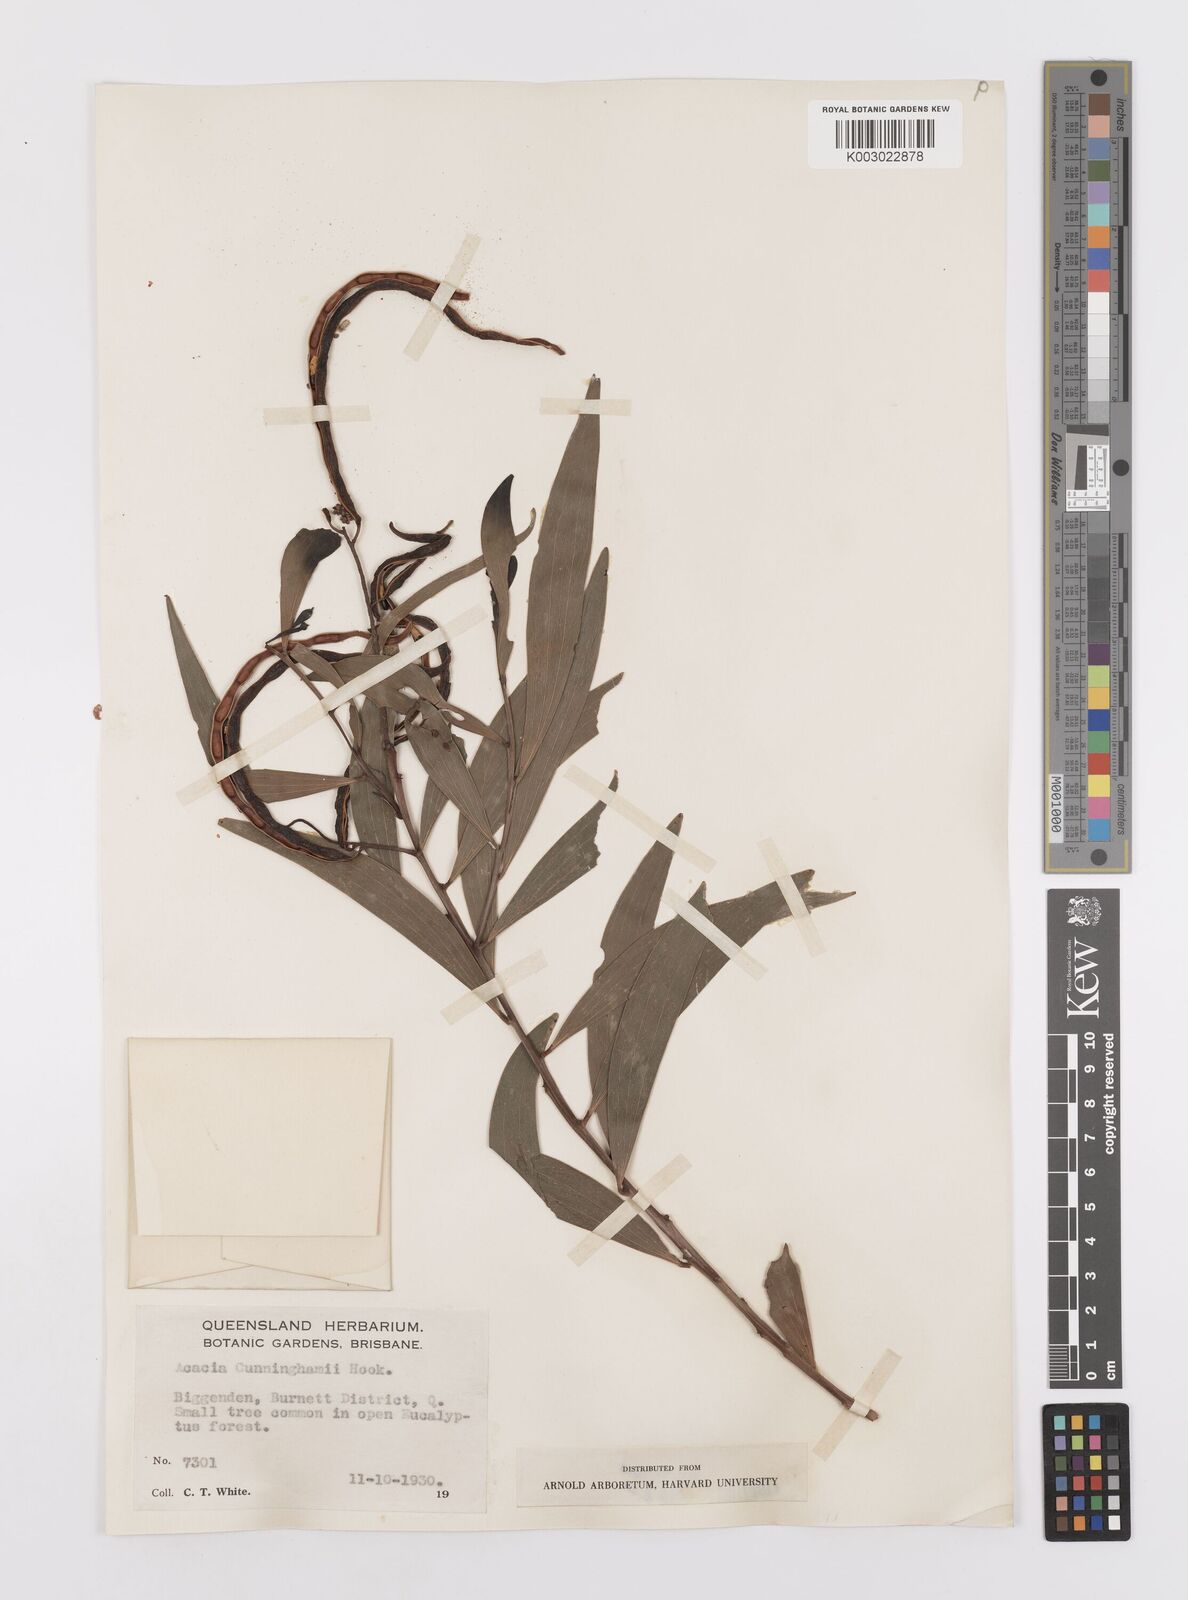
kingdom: Plantae
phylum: Tracheophyta
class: Magnoliopsida
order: Fabales
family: Fabaceae
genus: Acacia
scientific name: Acacia longispicata
